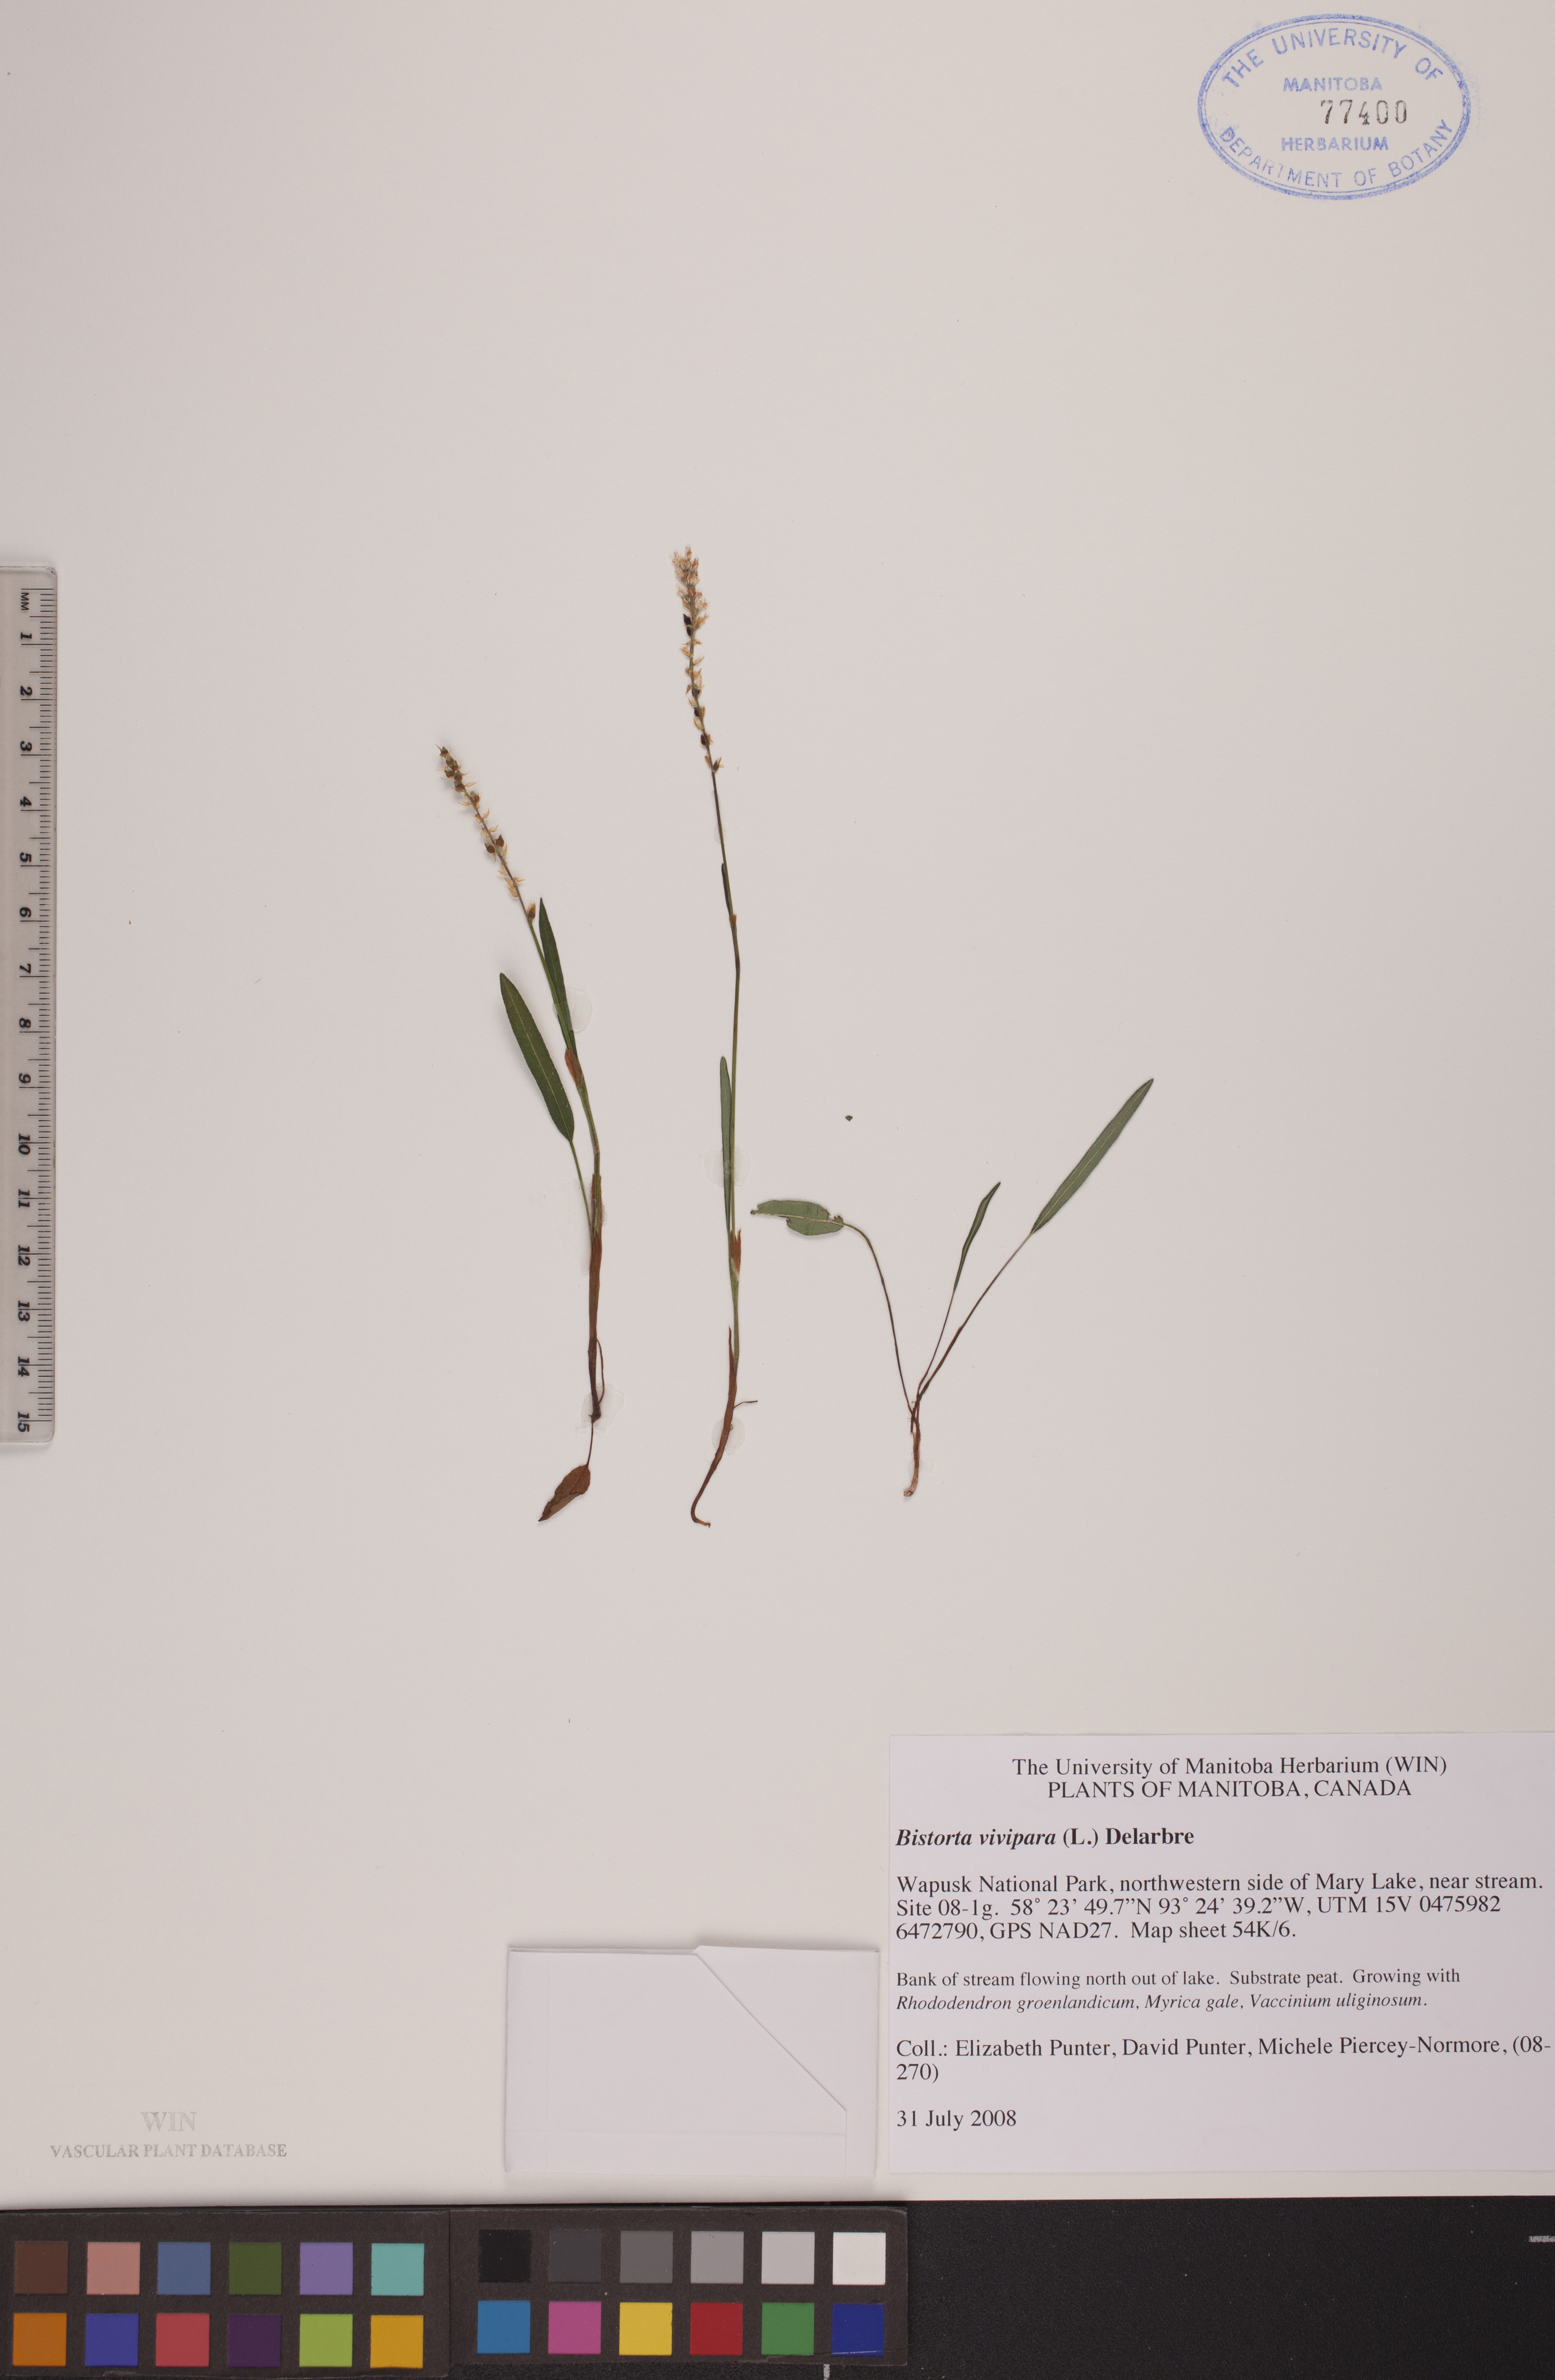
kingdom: Plantae
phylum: Tracheophyta
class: Magnoliopsida
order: Caryophyllales
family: Polygonaceae
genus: Bistorta
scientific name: Bistorta vivipara
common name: Alpine bistort
